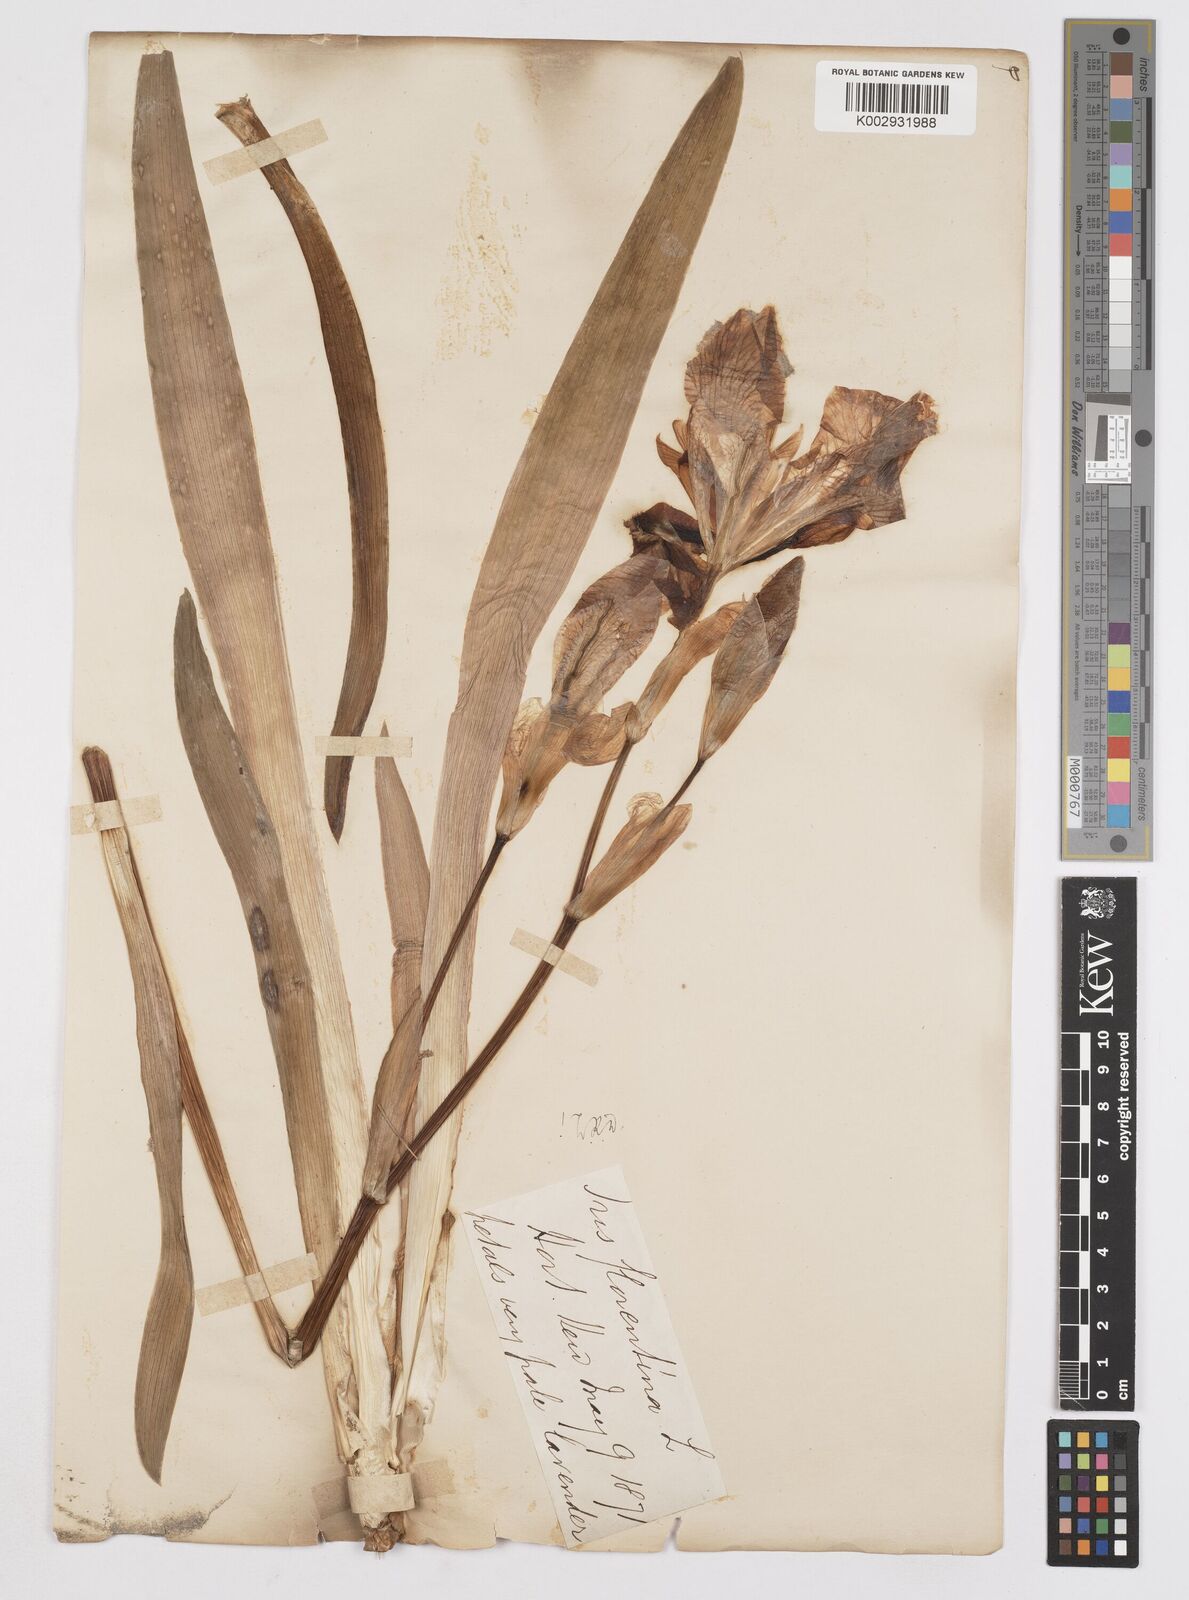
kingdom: Plantae
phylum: Tracheophyta
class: Liliopsida
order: Asparagales
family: Iridaceae
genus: Iris
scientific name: Iris
